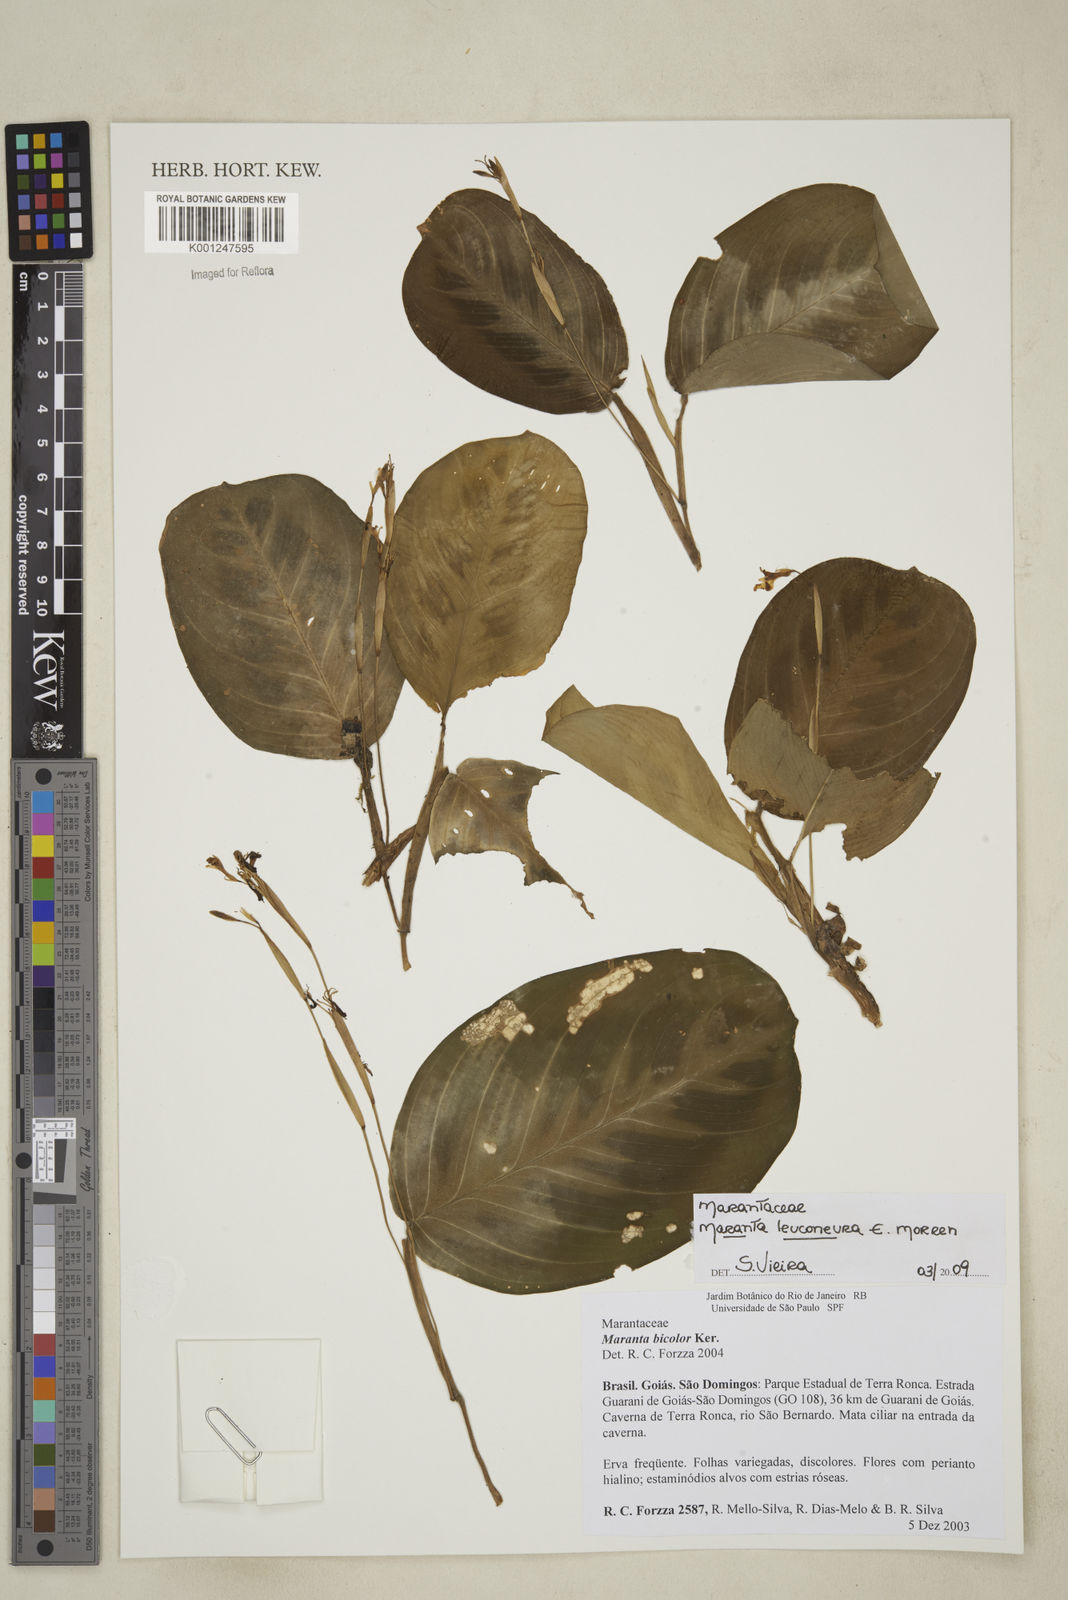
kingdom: Plantae
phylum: Tracheophyta
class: Liliopsida
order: Zingiberales
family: Marantaceae
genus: Maranta
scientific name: Maranta leuconeura
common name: Ten-commandments
